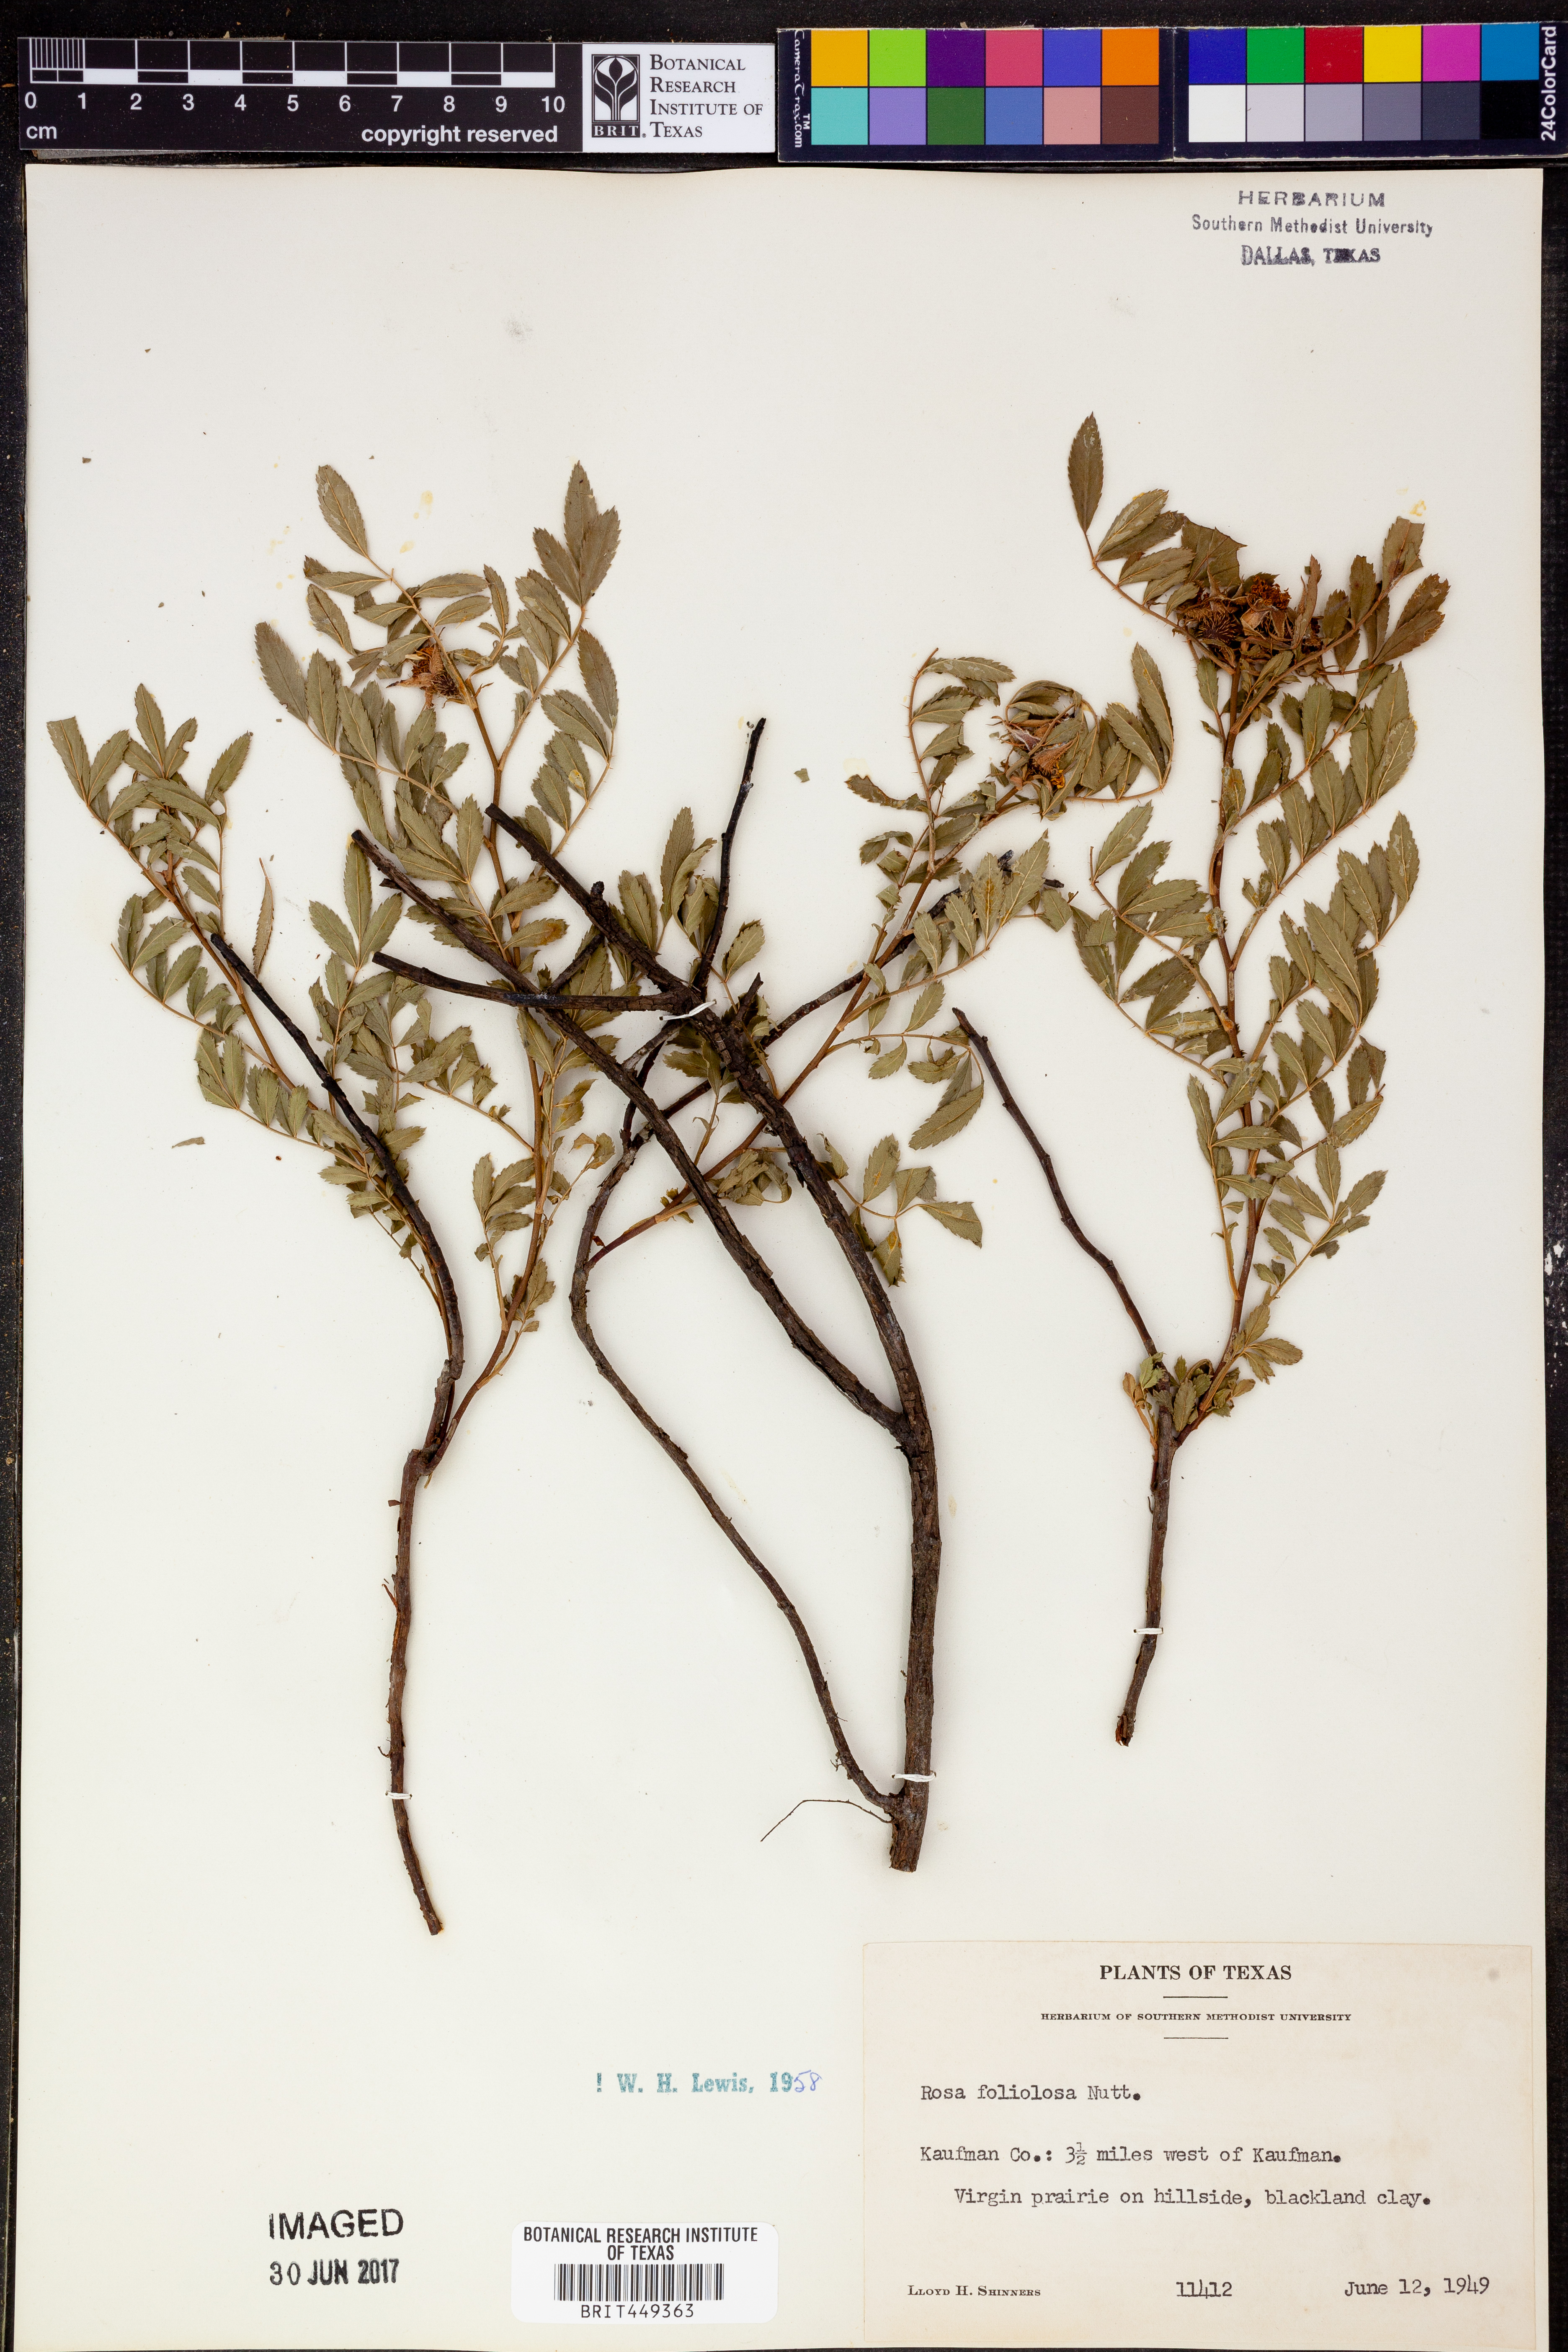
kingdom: Plantae
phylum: Tracheophyta
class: Magnoliopsida
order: Rosales
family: Rosaceae
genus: Rosa
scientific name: Rosa foliolosa
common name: White prairie rose
